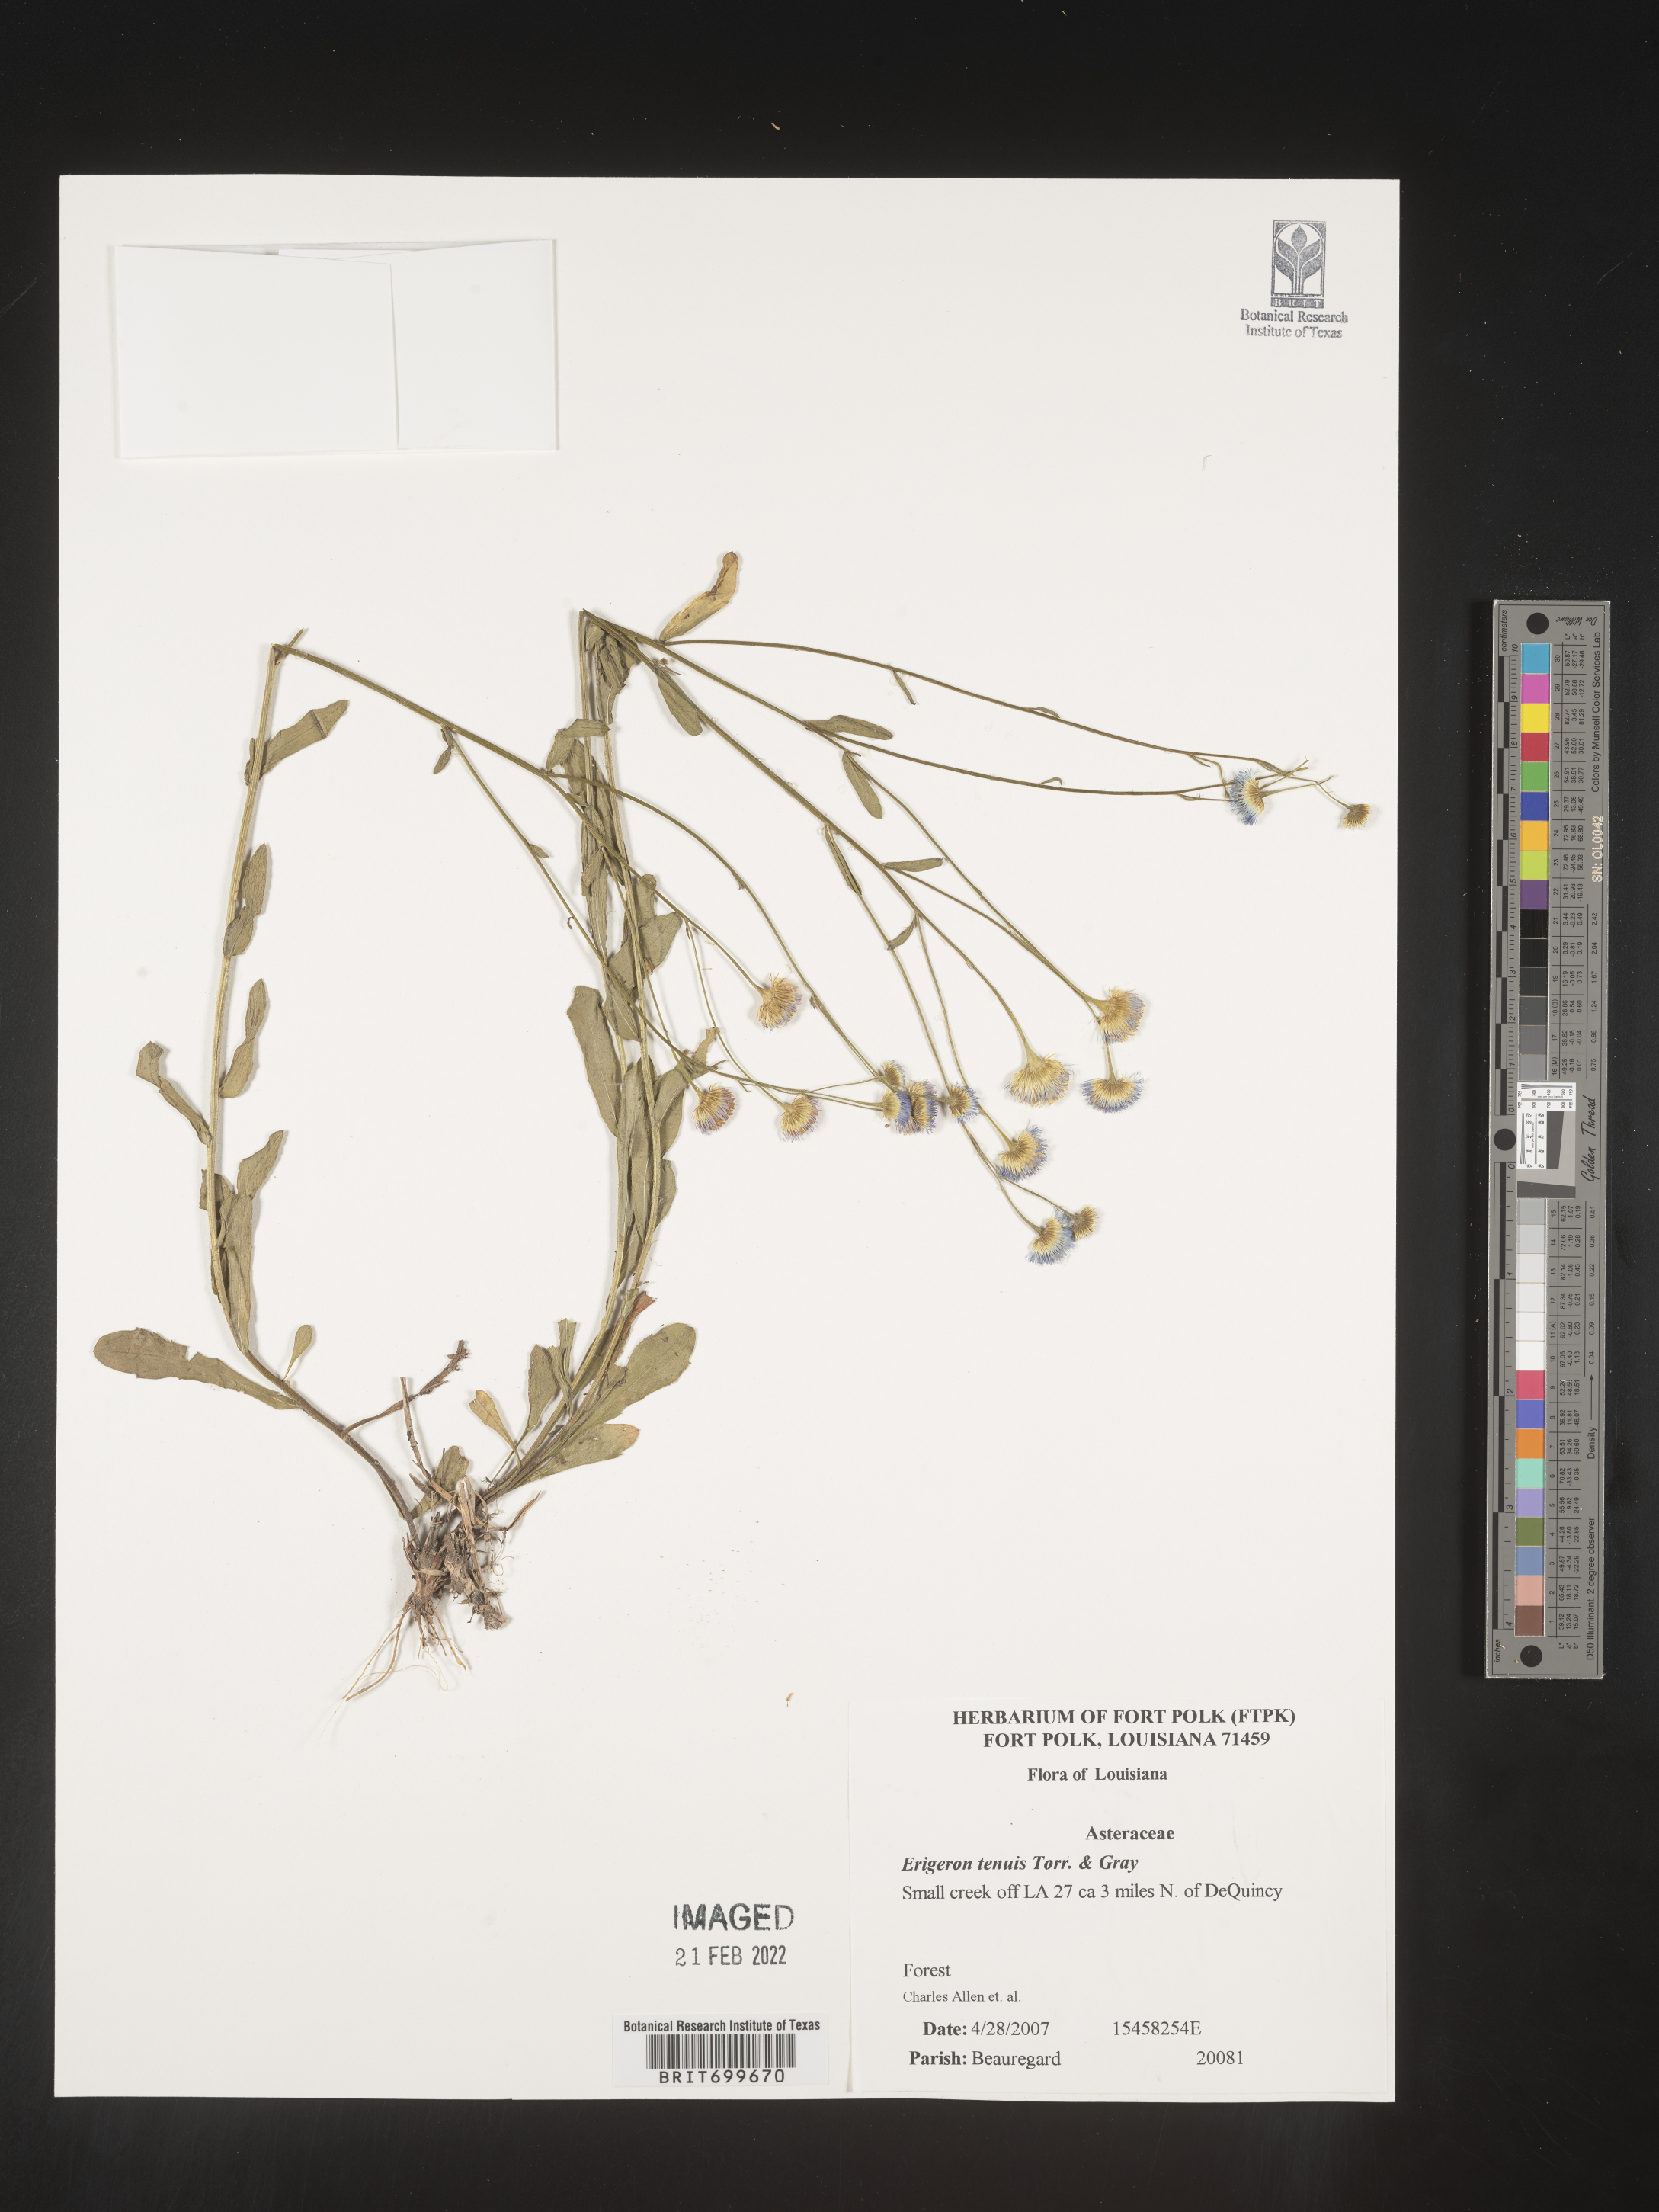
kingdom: Plantae
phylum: Tracheophyta
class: Magnoliopsida
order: Asterales
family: Asteraceae
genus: Erigeron
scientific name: Erigeron tenuis
